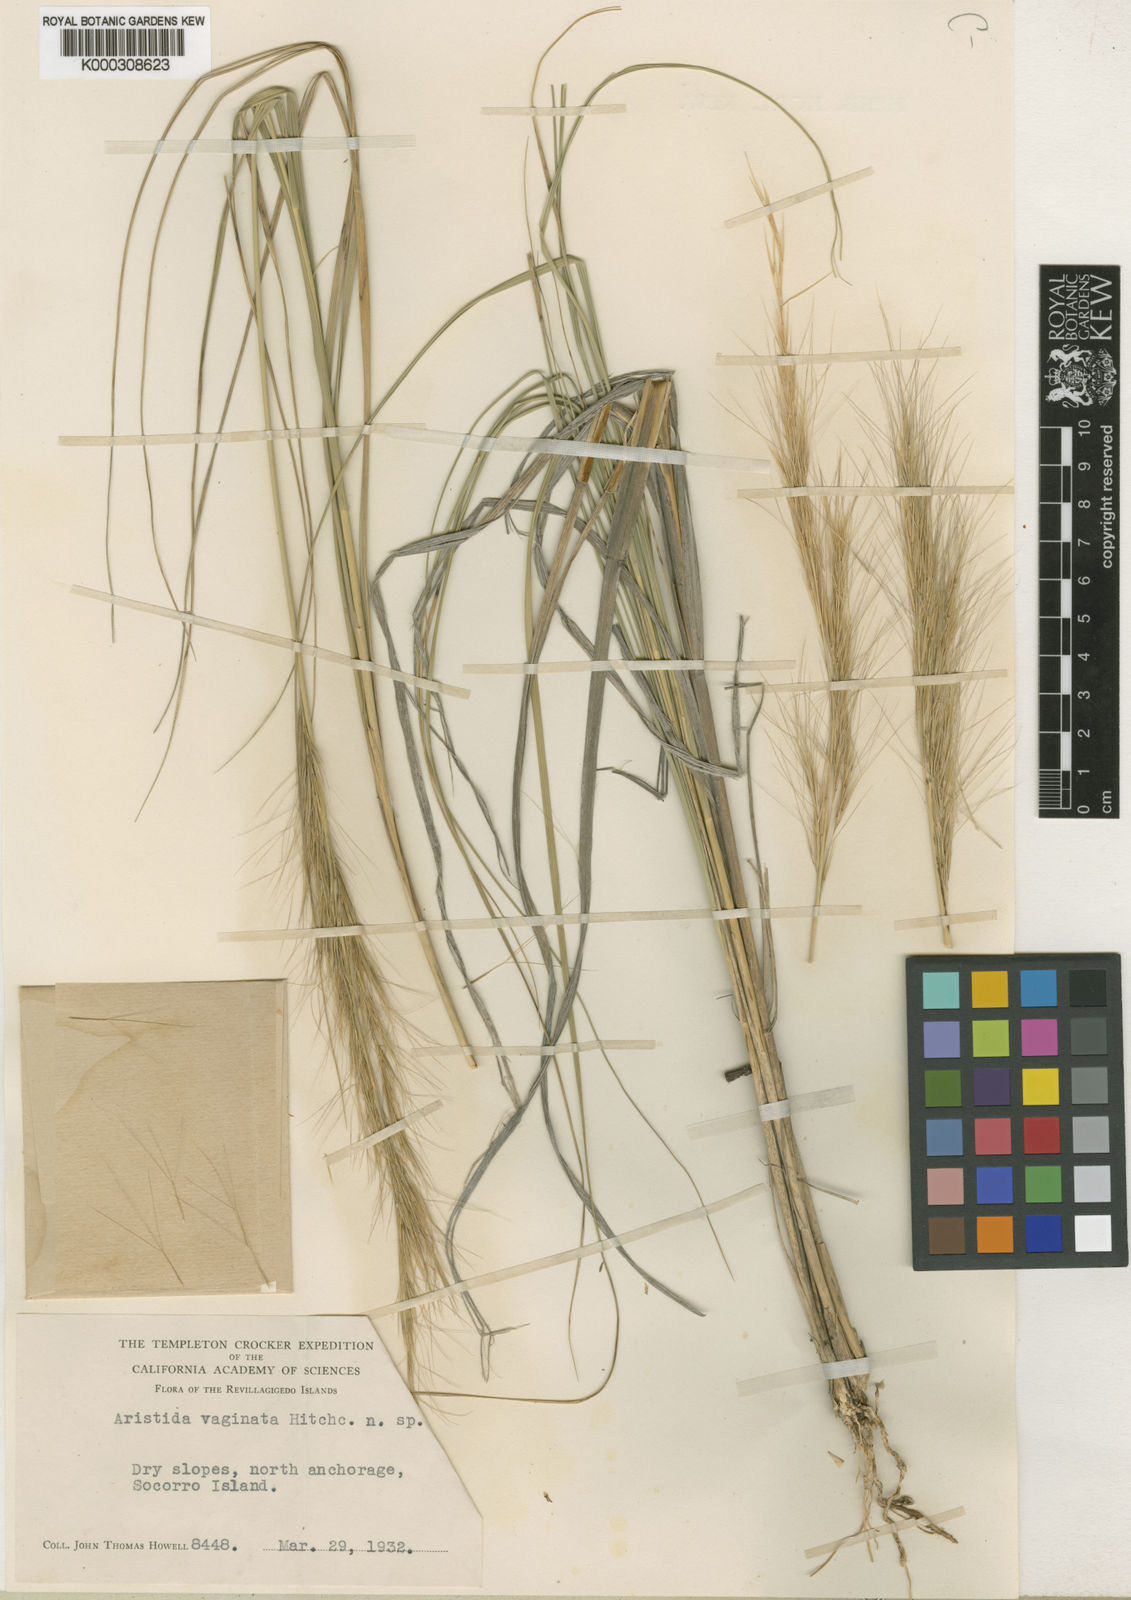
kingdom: Plantae
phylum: Tracheophyta
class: Liliopsida
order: Poales
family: Poaceae
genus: Aristida
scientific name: Aristida vaginata
